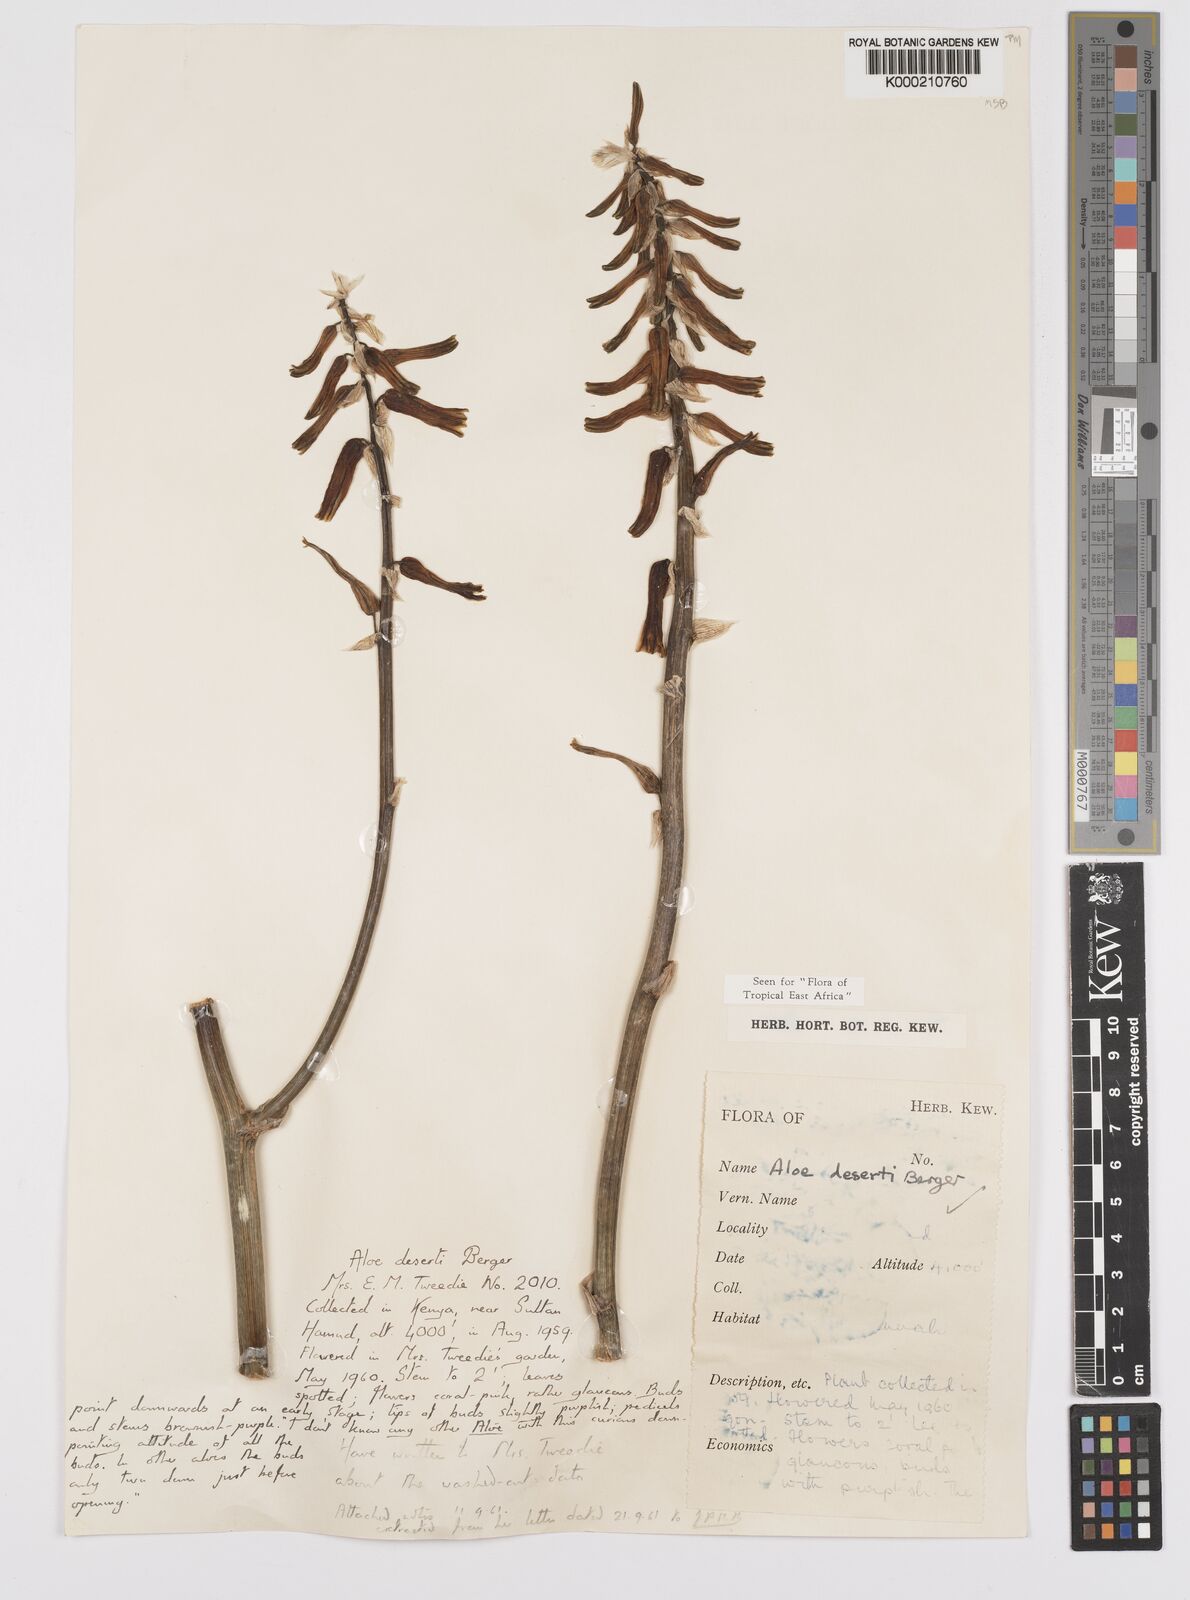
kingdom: Plantae
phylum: Tracheophyta
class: Liliopsida
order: Asparagales
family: Asphodelaceae
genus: Aloe
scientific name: Aloe deserti
